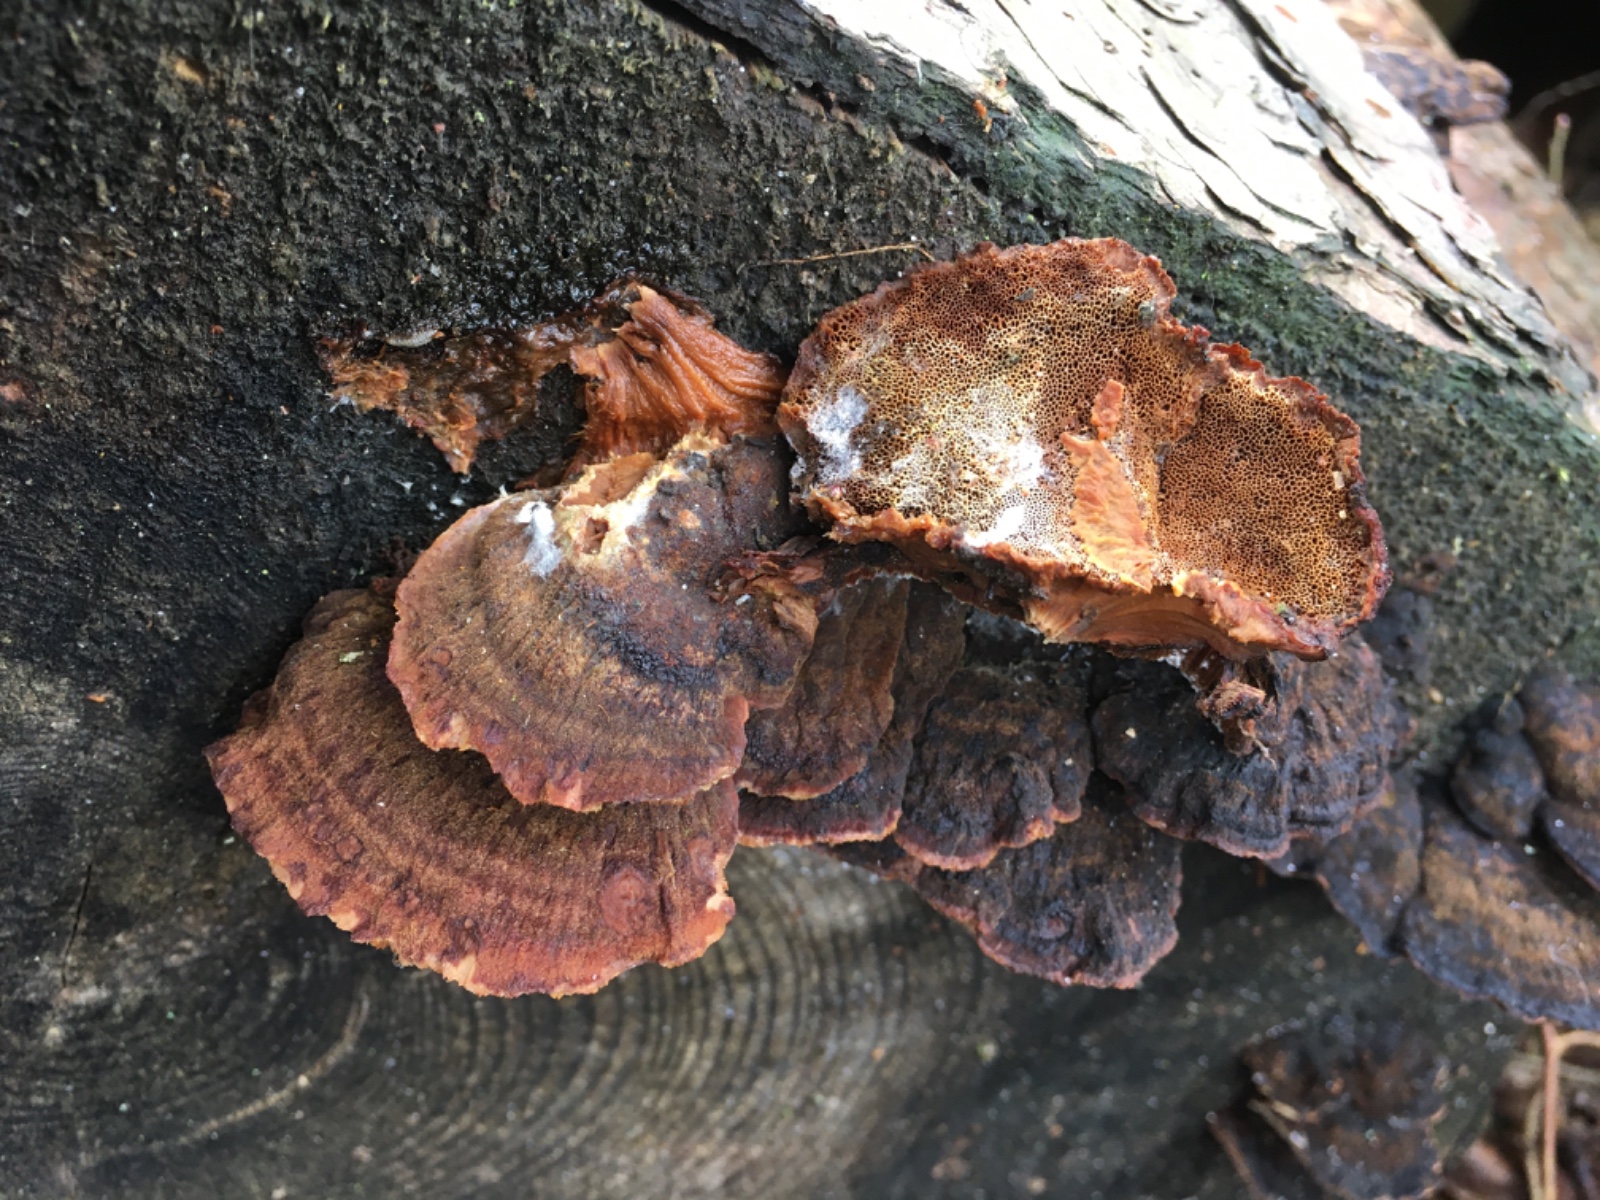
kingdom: Fungi
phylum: Basidiomycota
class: Agaricomycetes
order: Polyporales
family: Ischnodermataceae
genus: Ischnoderma
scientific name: Ischnoderma benzoinum
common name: gran-tjæreporesvamp
